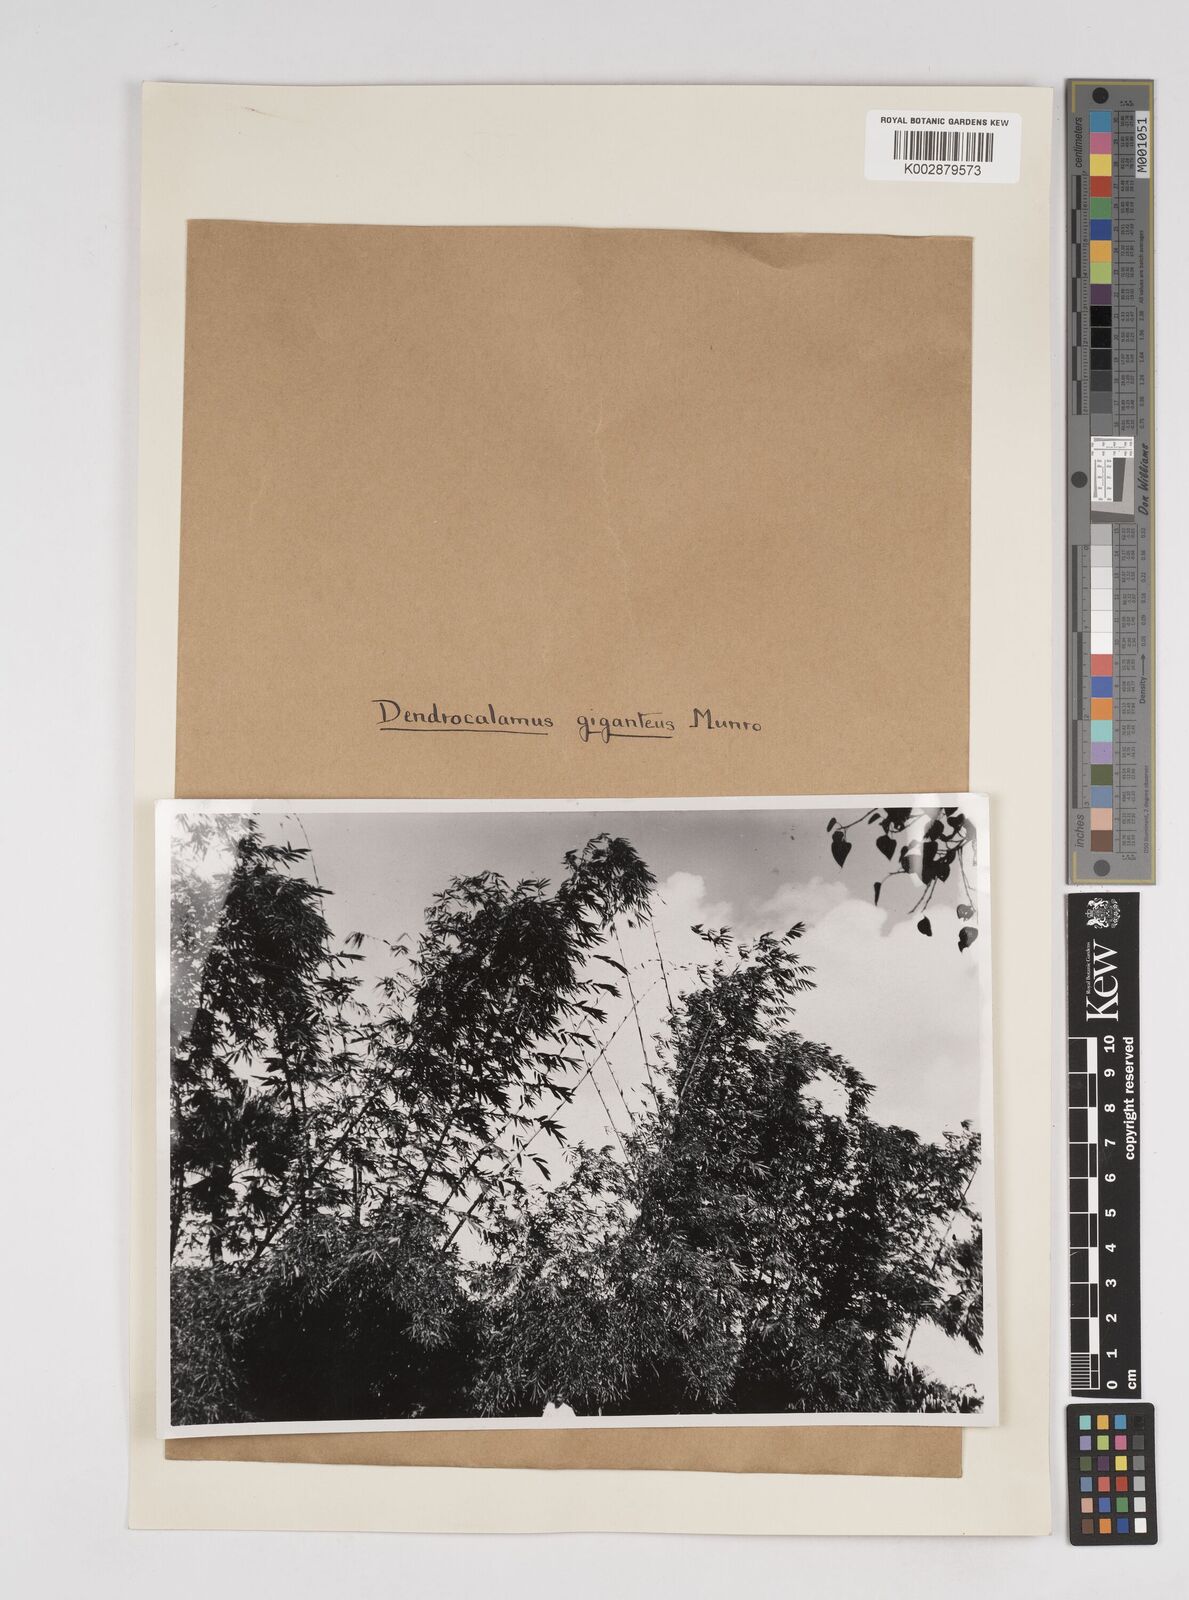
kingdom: Plantae
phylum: Tracheophyta
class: Liliopsida
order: Poales
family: Poaceae
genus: Dendrocalamus
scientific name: Dendrocalamus giganteus
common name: Giant bamboo
